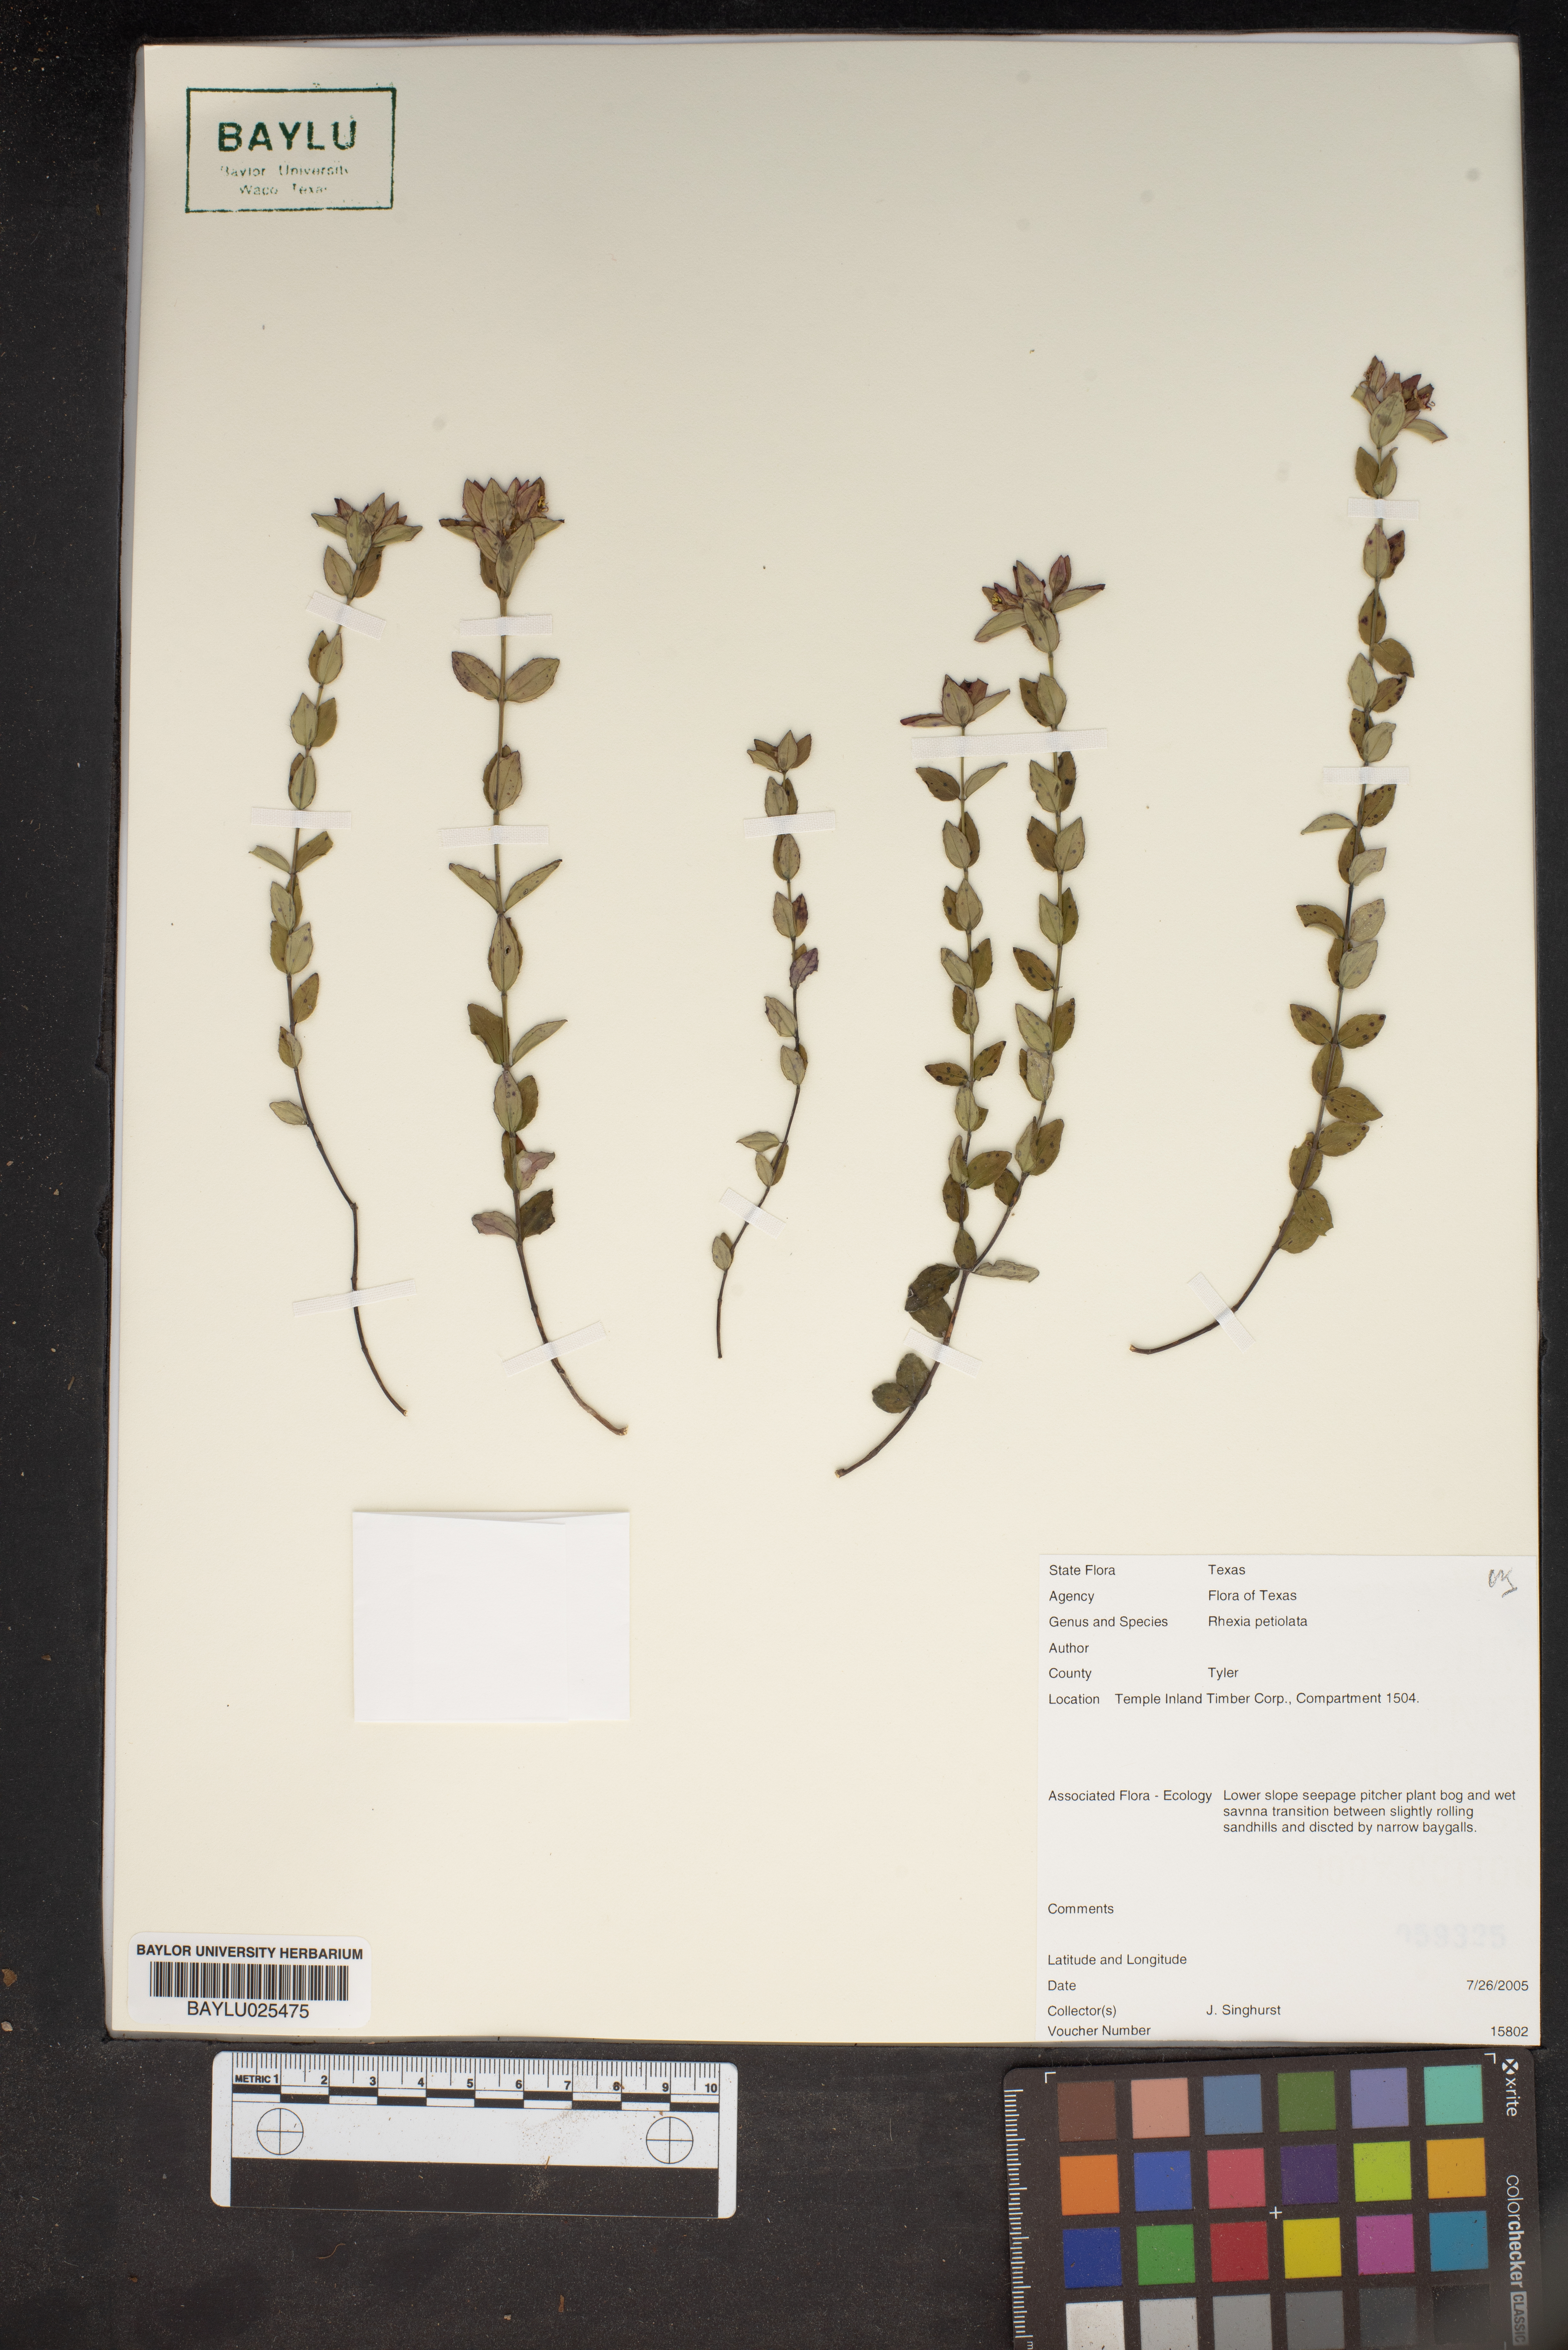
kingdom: Plantae
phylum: Tracheophyta
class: Magnoliopsida
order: Myrtales
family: Melastomataceae
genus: Rhexia
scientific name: Rhexia petiolata
